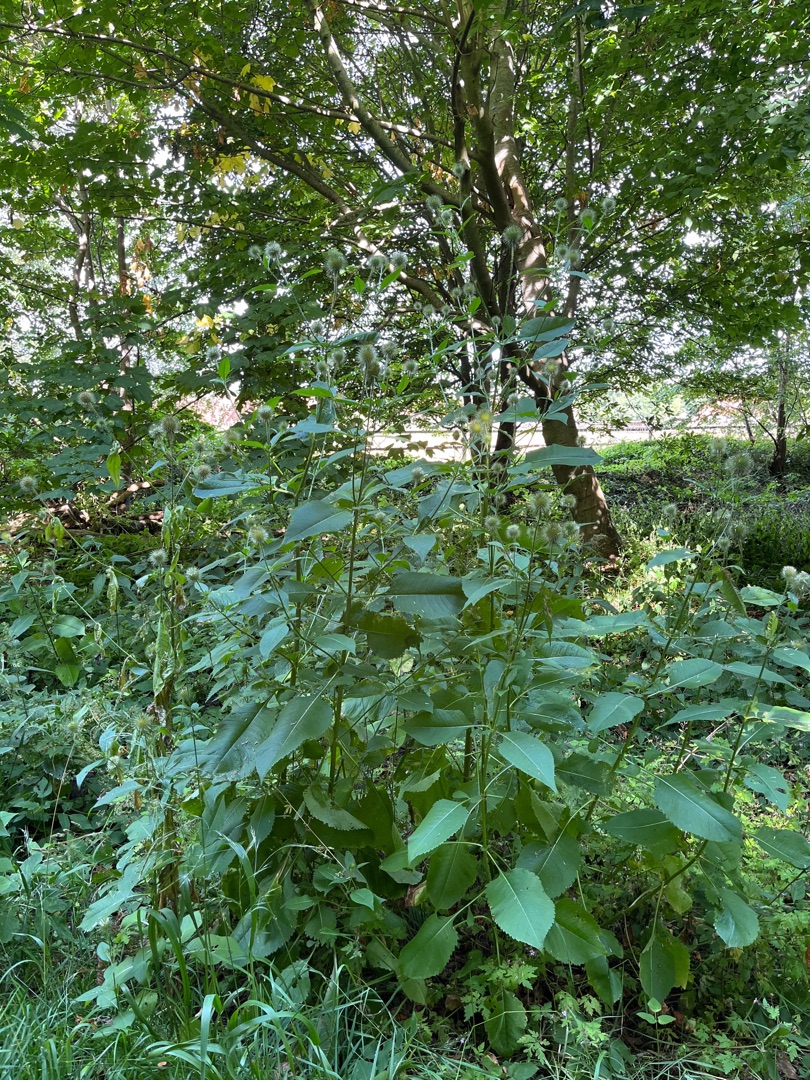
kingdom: Plantae
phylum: Tracheophyta
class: Magnoliopsida
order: Dipsacales
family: Caprifoliaceae
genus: Dipsacus
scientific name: Dipsacus strigosus
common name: Pindsvin-kartebolle
